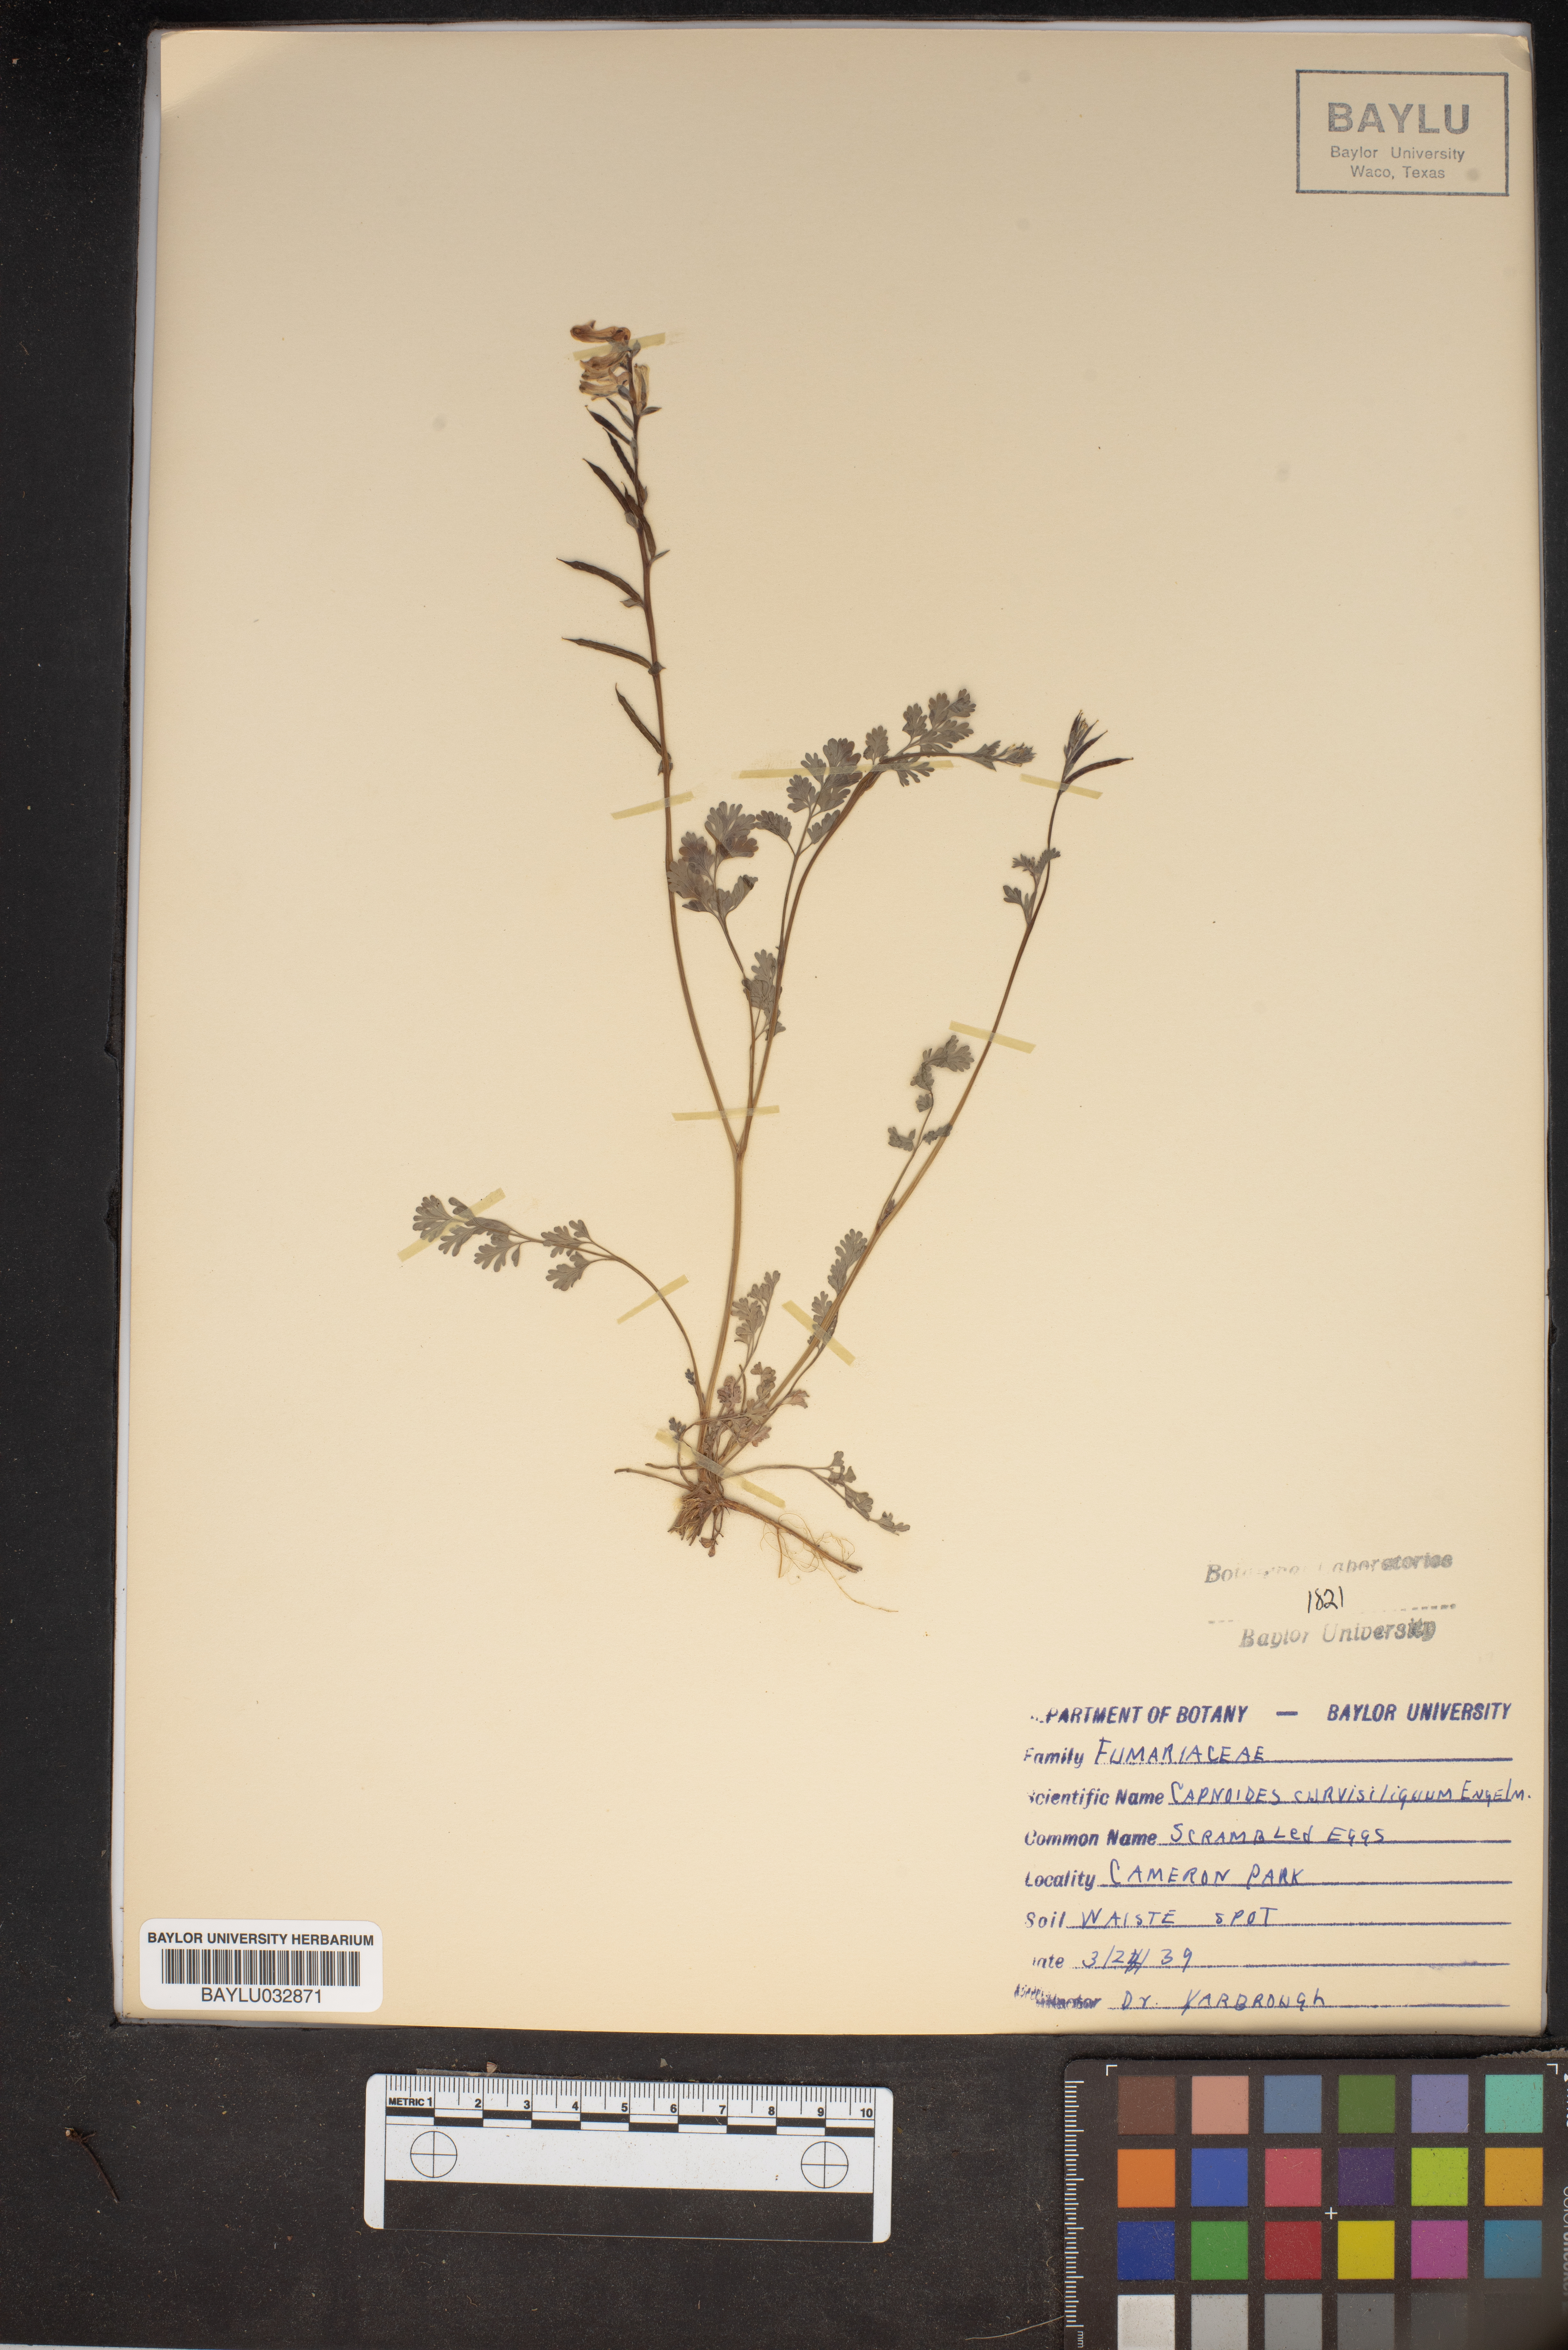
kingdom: Plantae
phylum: Tracheophyta
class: Magnoliopsida
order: Ranunculales
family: Papaveraceae
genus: Corydalis
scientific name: Corydalis curvisiliqua
